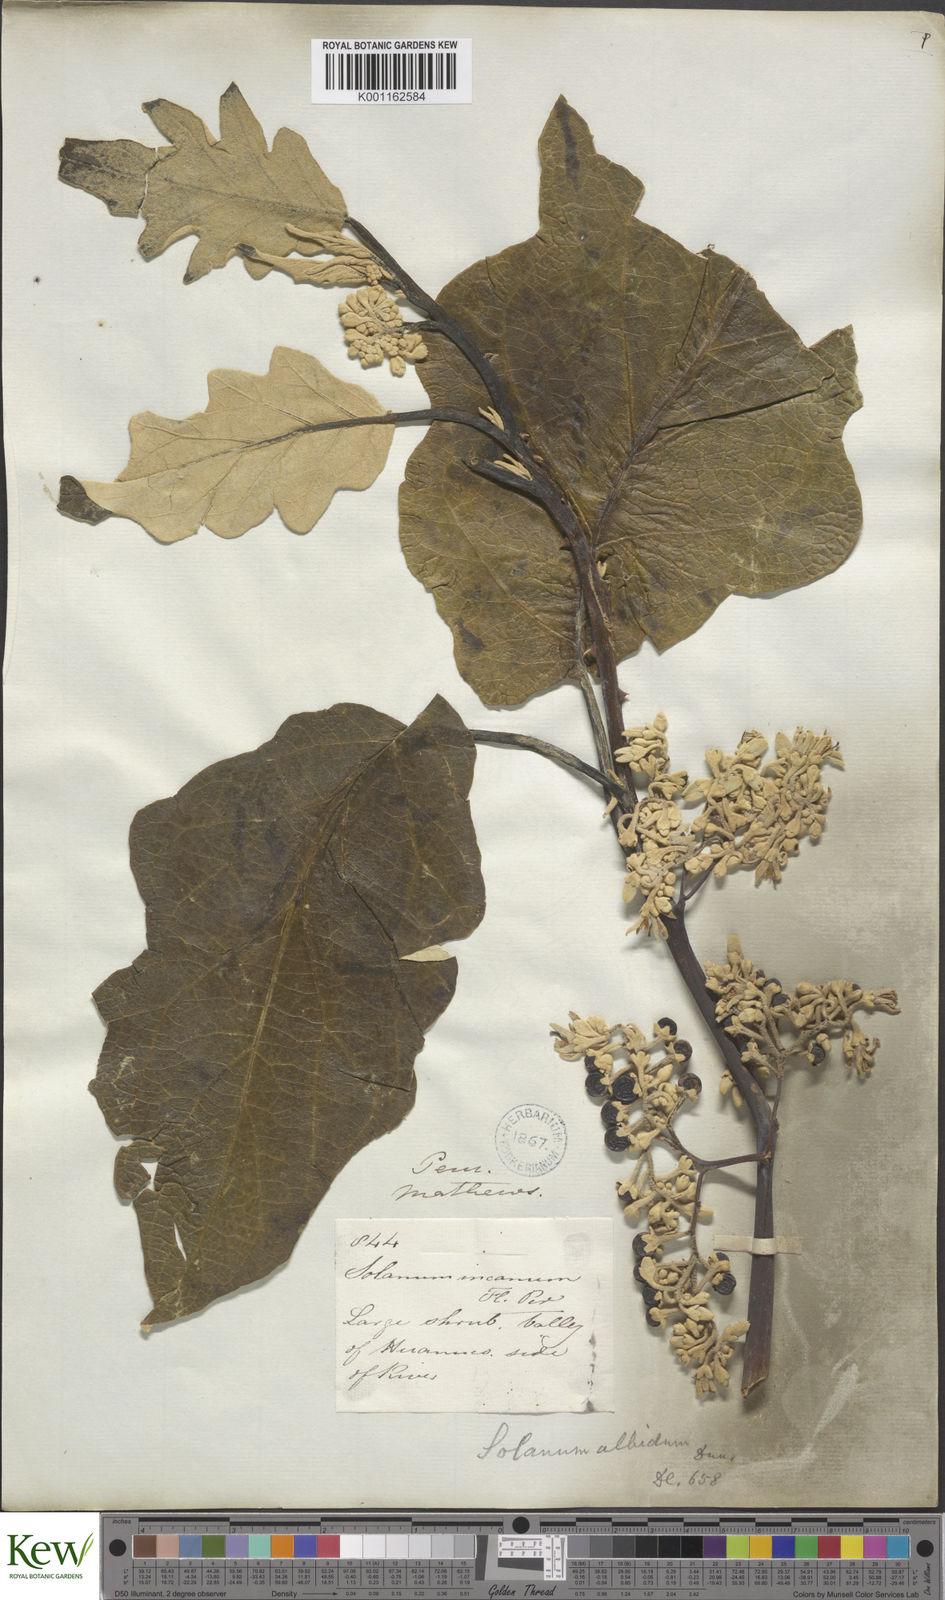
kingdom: Plantae
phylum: Tracheophyta
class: Magnoliopsida
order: Solanales
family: Solanaceae
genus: Solanum
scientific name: Solanum albidum
